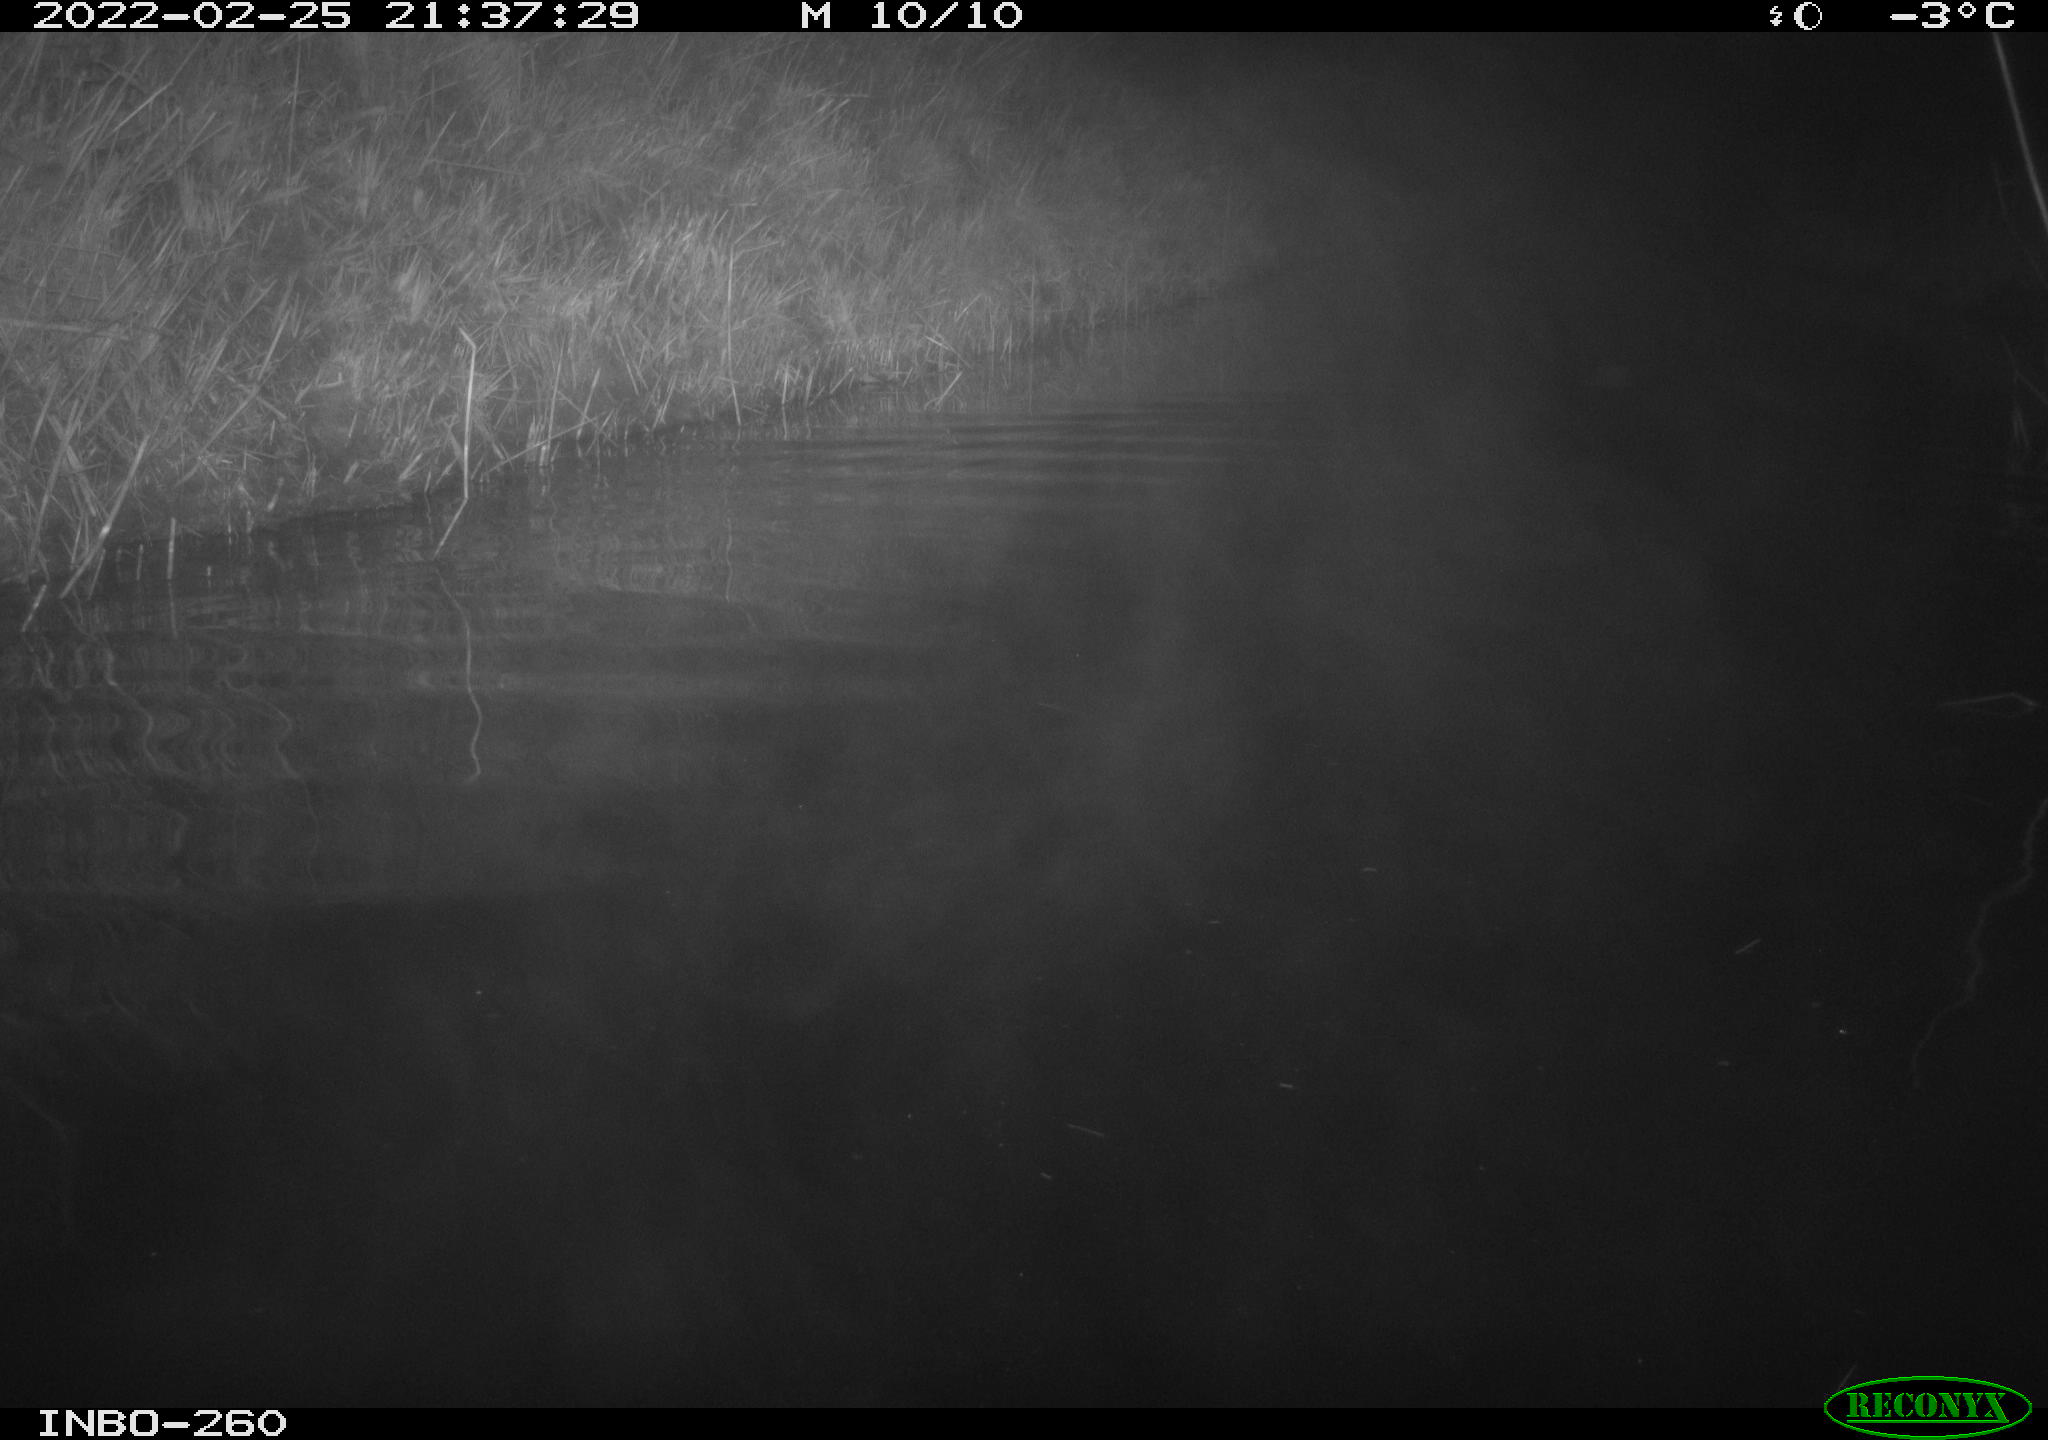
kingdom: Animalia
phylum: Chordata
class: Mammalia
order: Rodentia
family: Cricetidae
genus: Ondatra
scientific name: Ondatra zibethicus
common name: Muskrat
